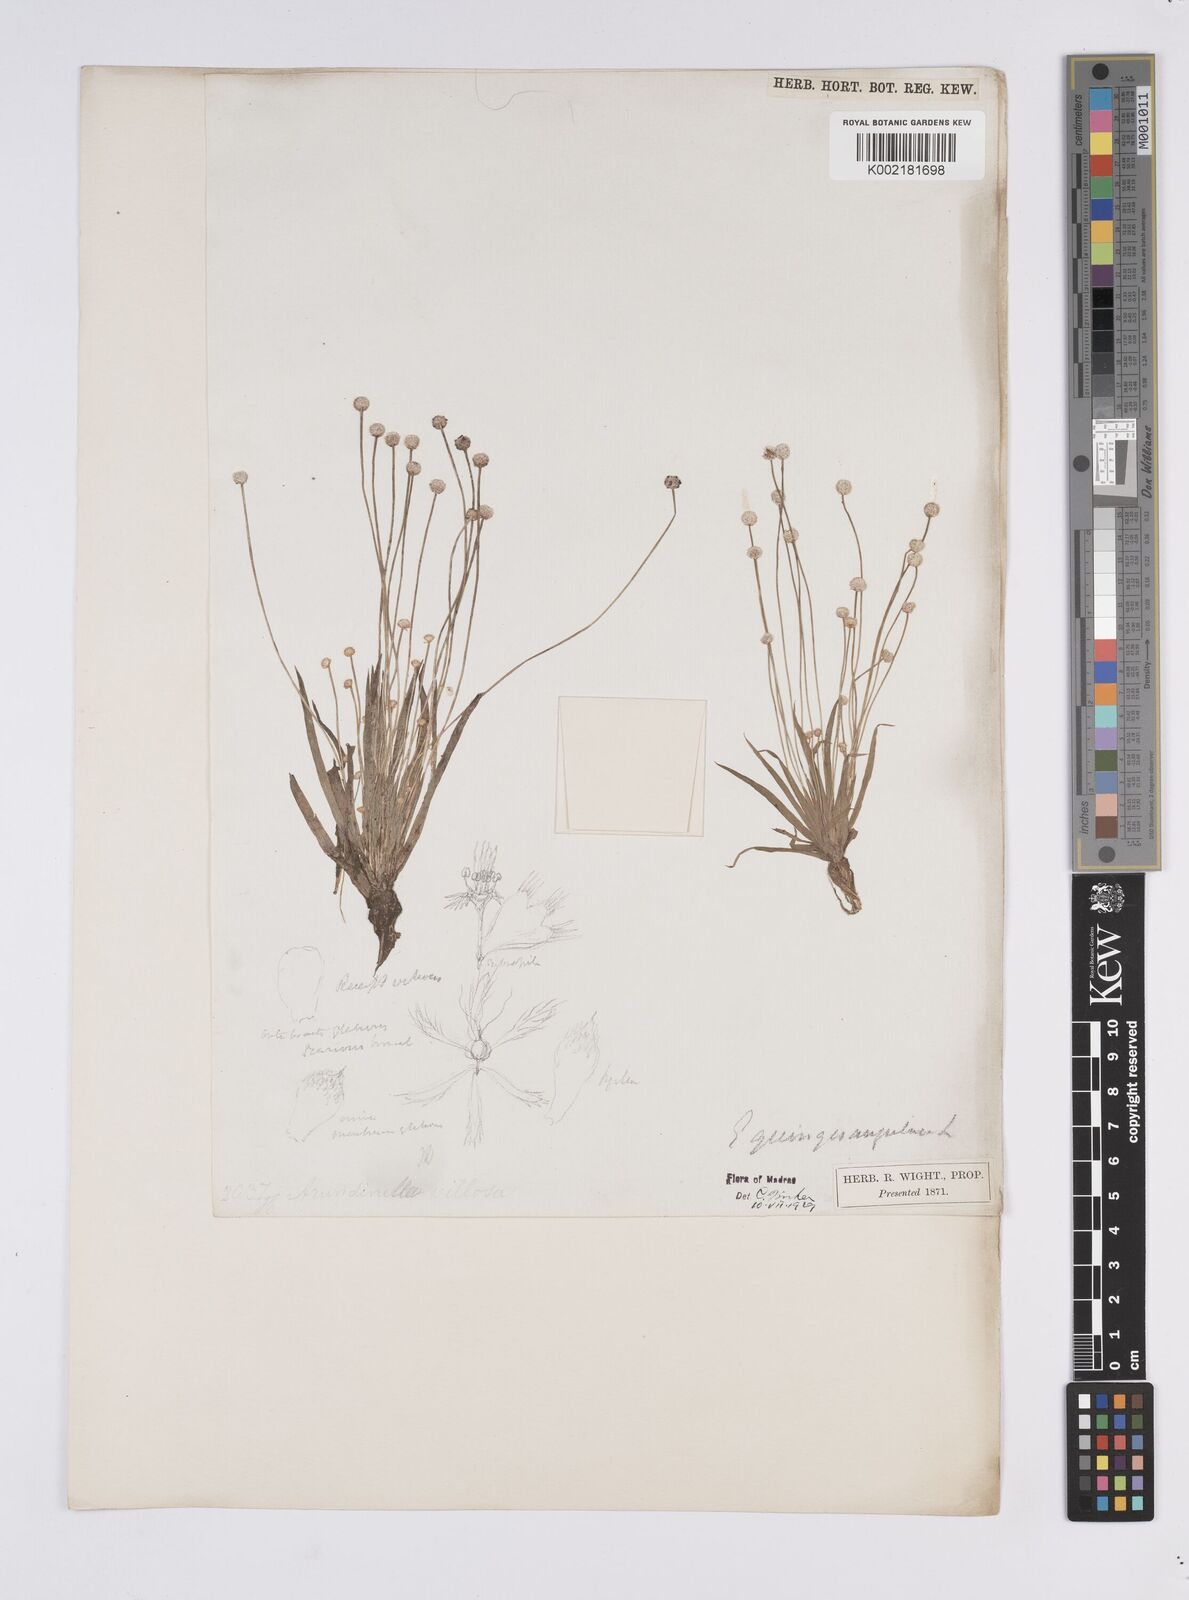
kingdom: Plantae
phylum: Tracheophyta
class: Liliopsida
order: Poales
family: Eriocaulaceae
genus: Eriocaulon
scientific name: Eriocaulon quinquangulare
